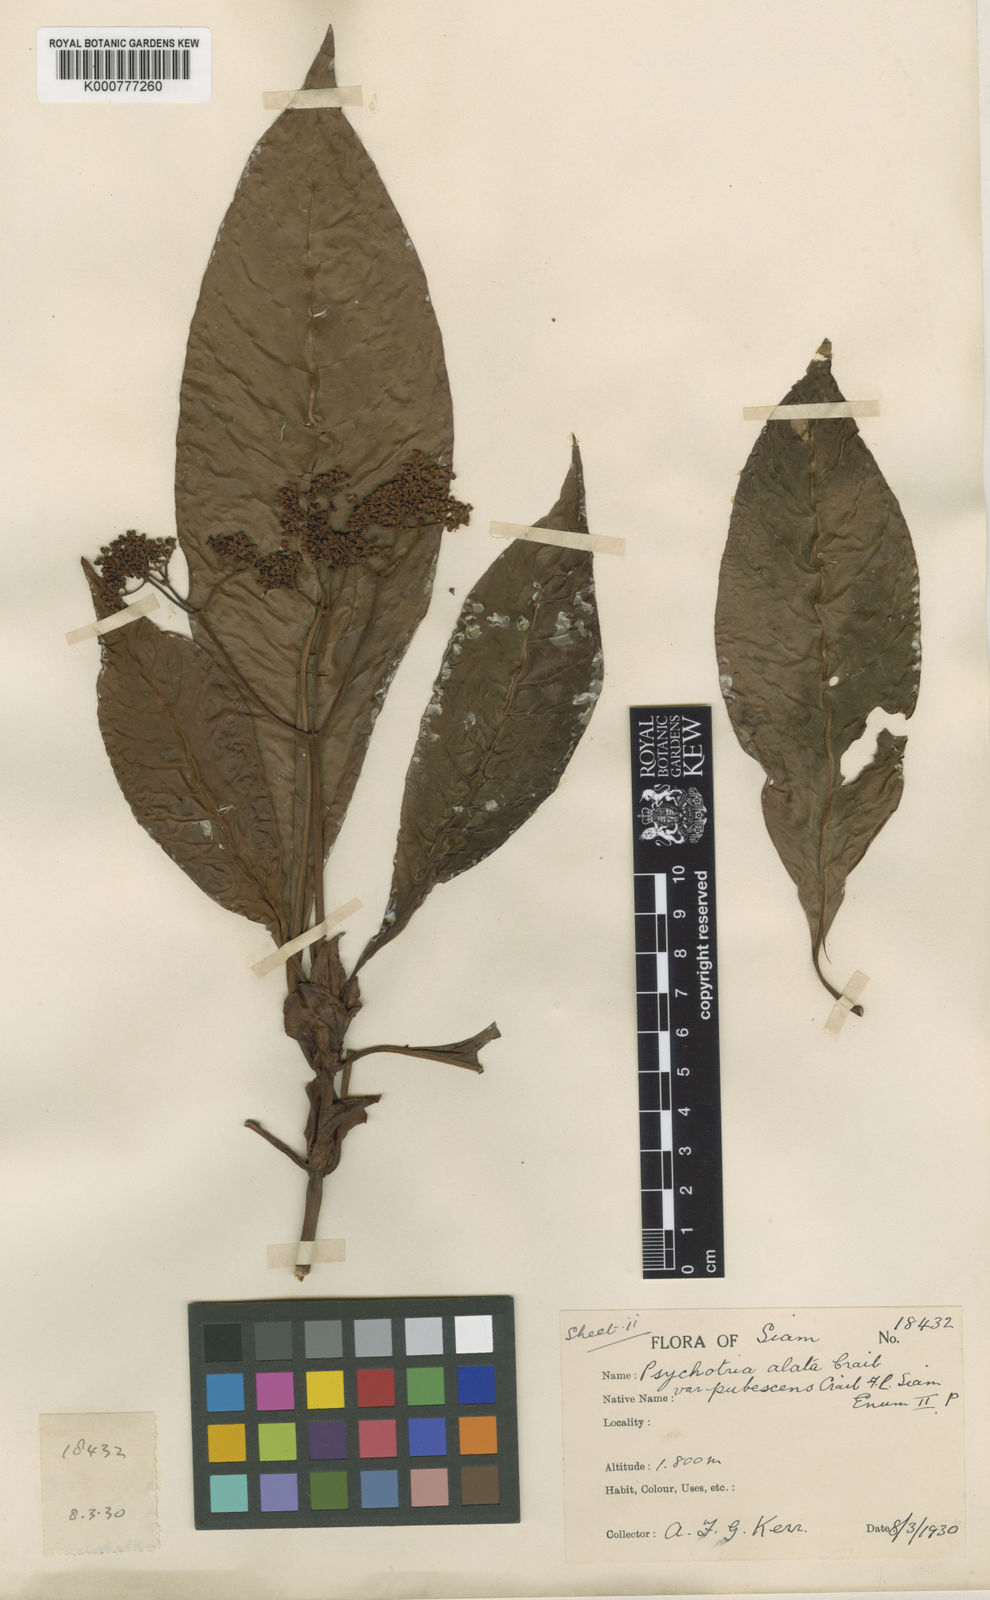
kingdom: Plantae
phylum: Tracheophyta
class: Magnoliopsida
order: Gentianales
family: Rubiaceae
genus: Psychotria
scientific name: Psychotria fuscescens
